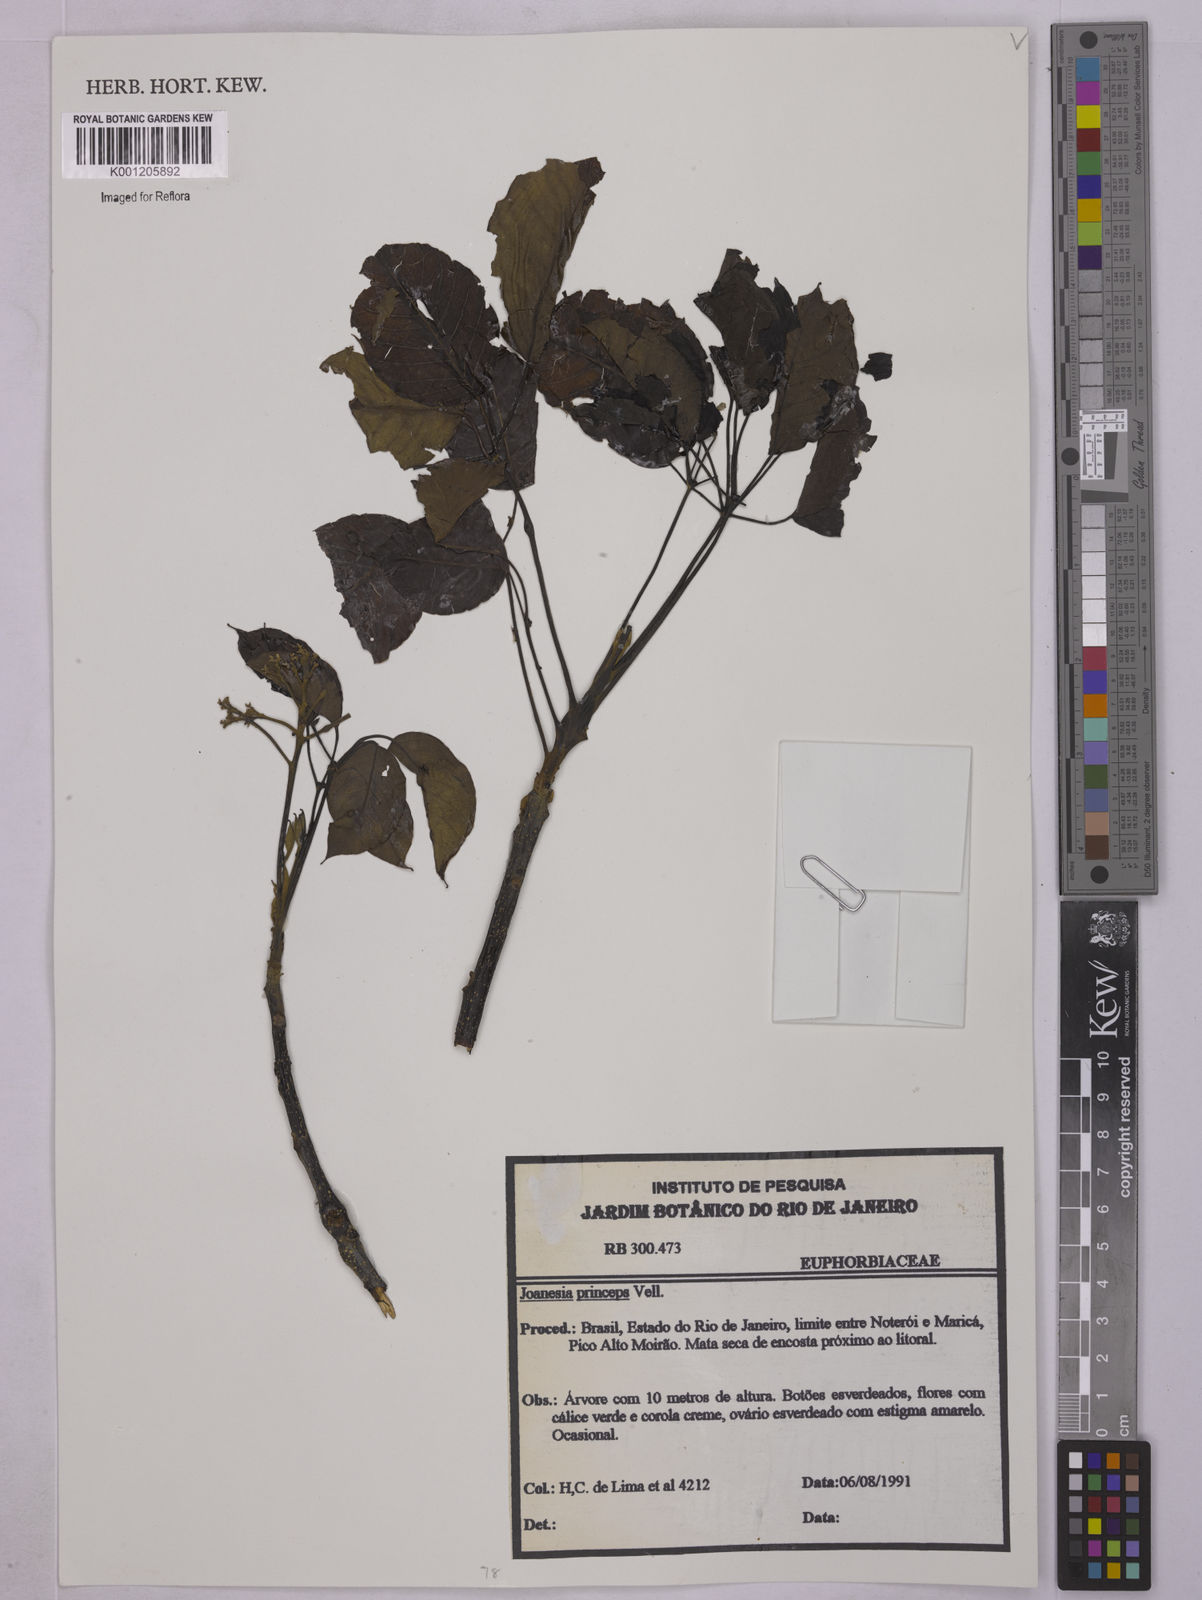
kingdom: Plantae
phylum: Tracheophyta
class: Magnoliopsida
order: Malpighiales
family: Euphorbiaceae
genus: Joannesia
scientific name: Joannesia princeps
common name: Arara nut-tree
